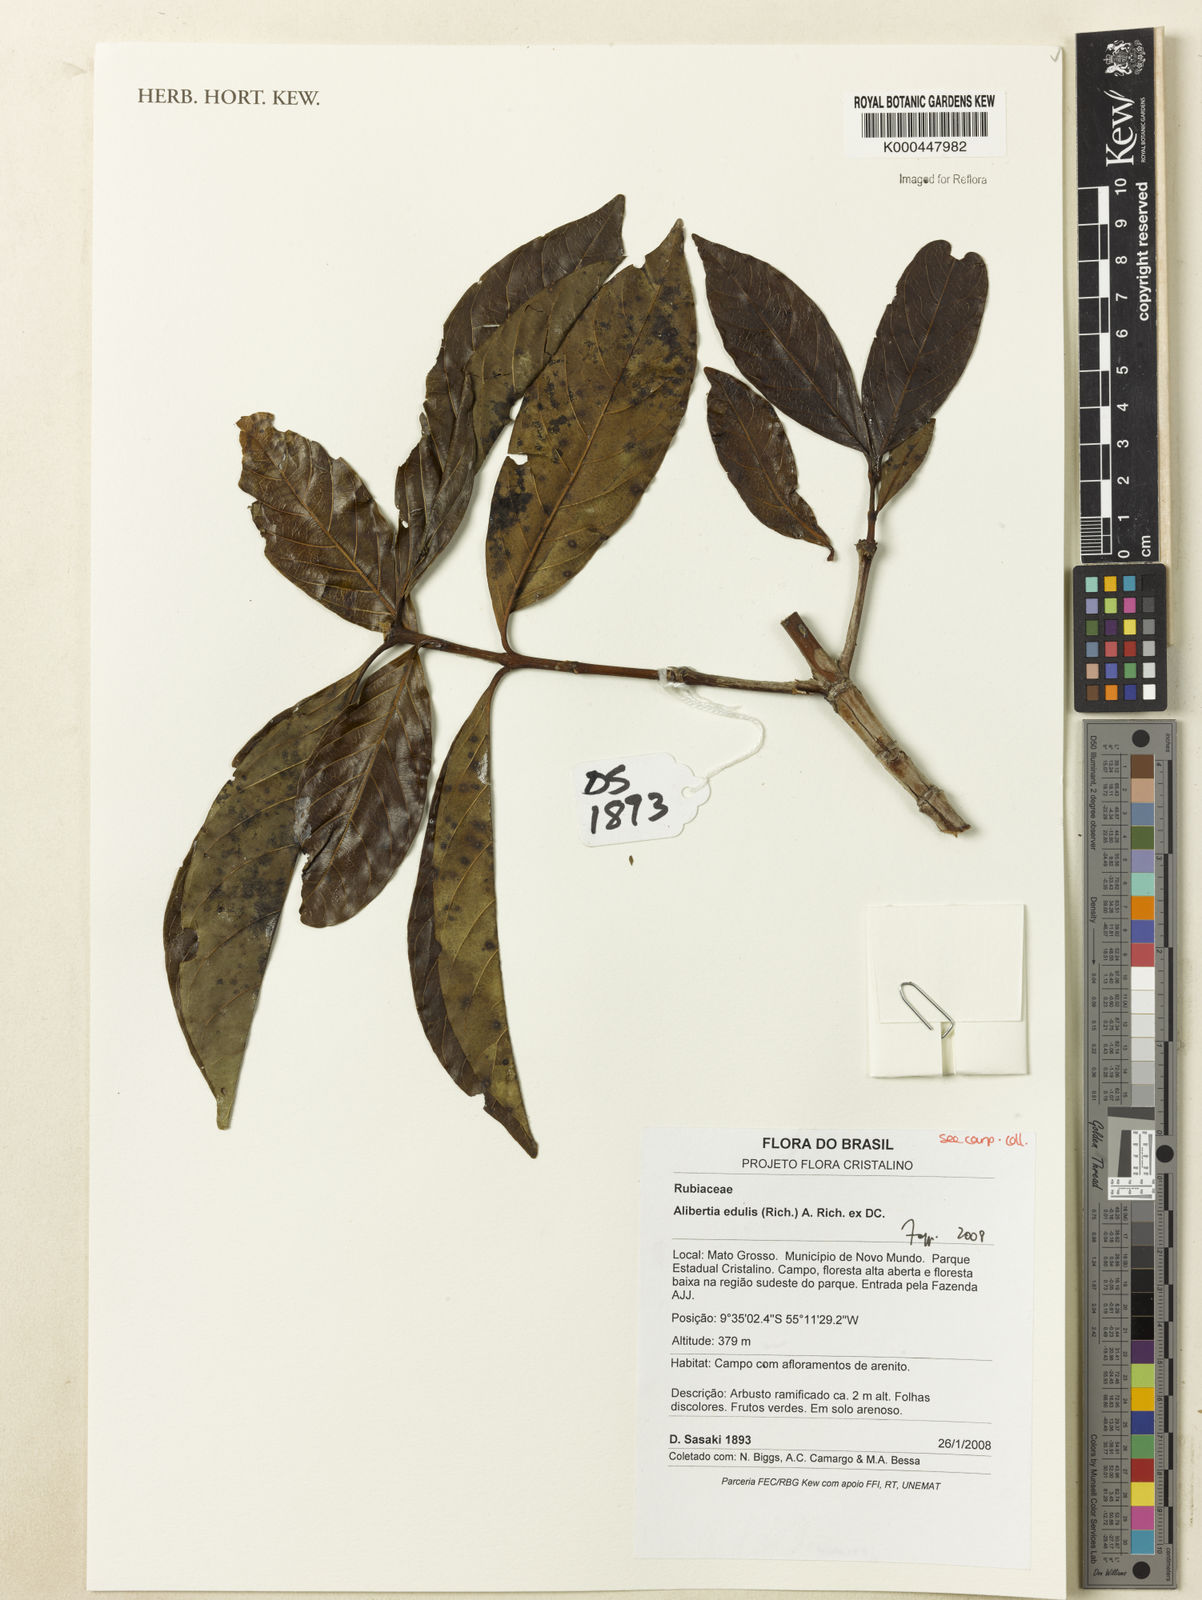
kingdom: Plantae
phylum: Tracheophyta
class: Magnoliopsida
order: Gentianales
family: Rubiaceae
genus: Alibertia
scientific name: Alibertia edulis
